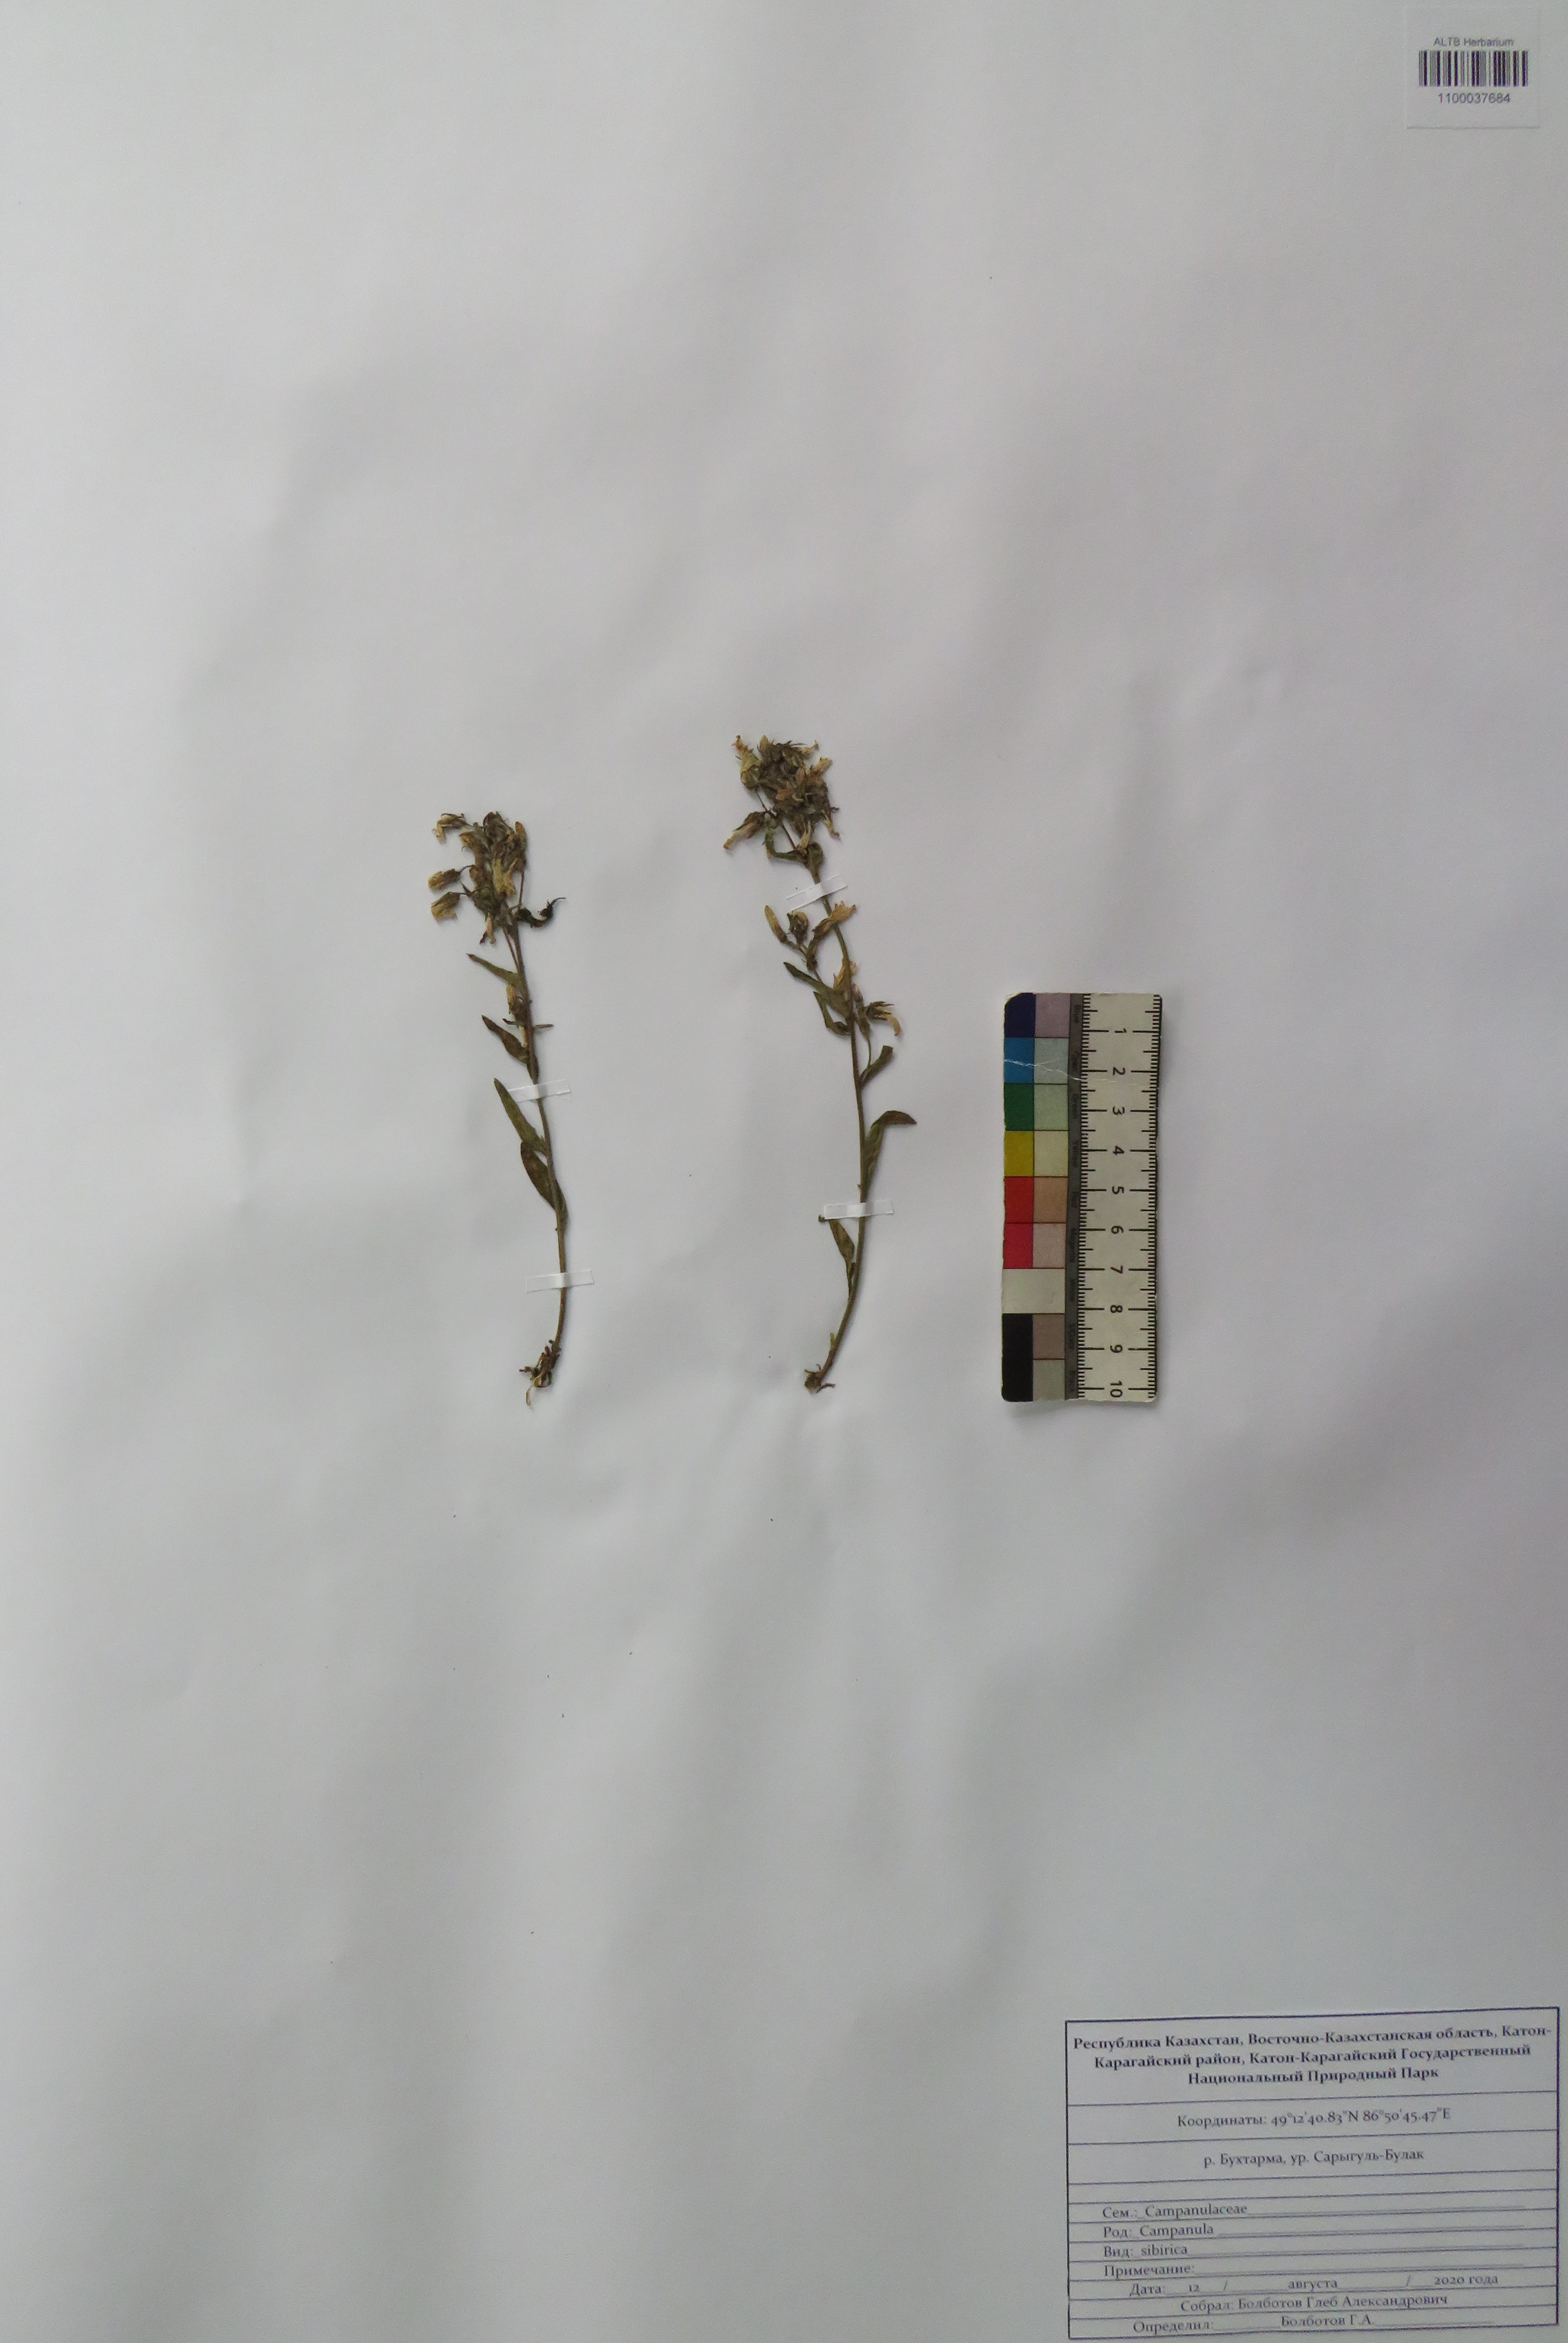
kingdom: Plantae
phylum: Tracheophyta
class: Magnoliopsida
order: Asterales
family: Campanulaceae
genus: Campanula
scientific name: Campanula sibirica
